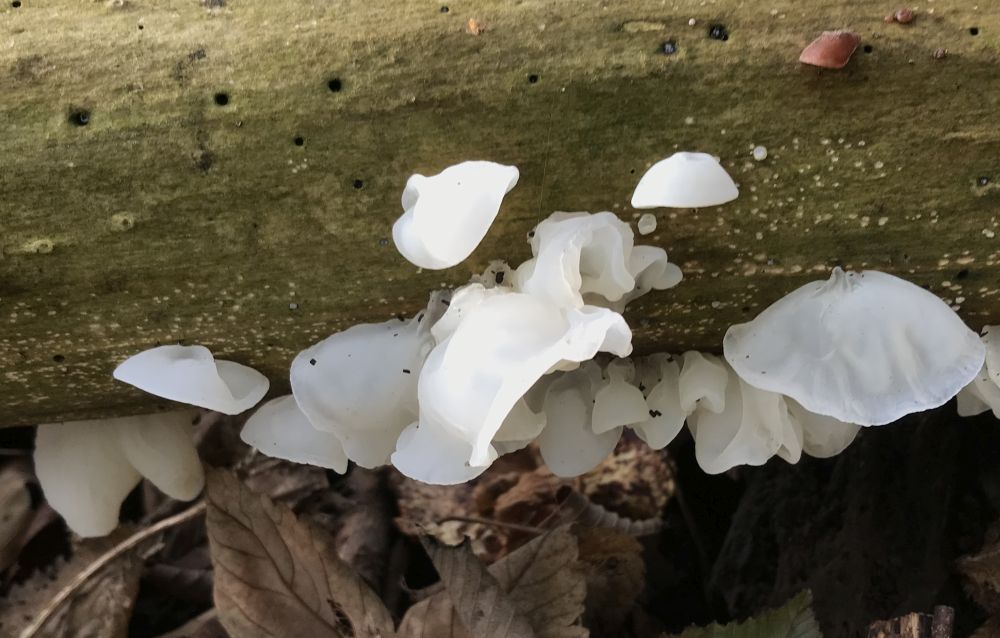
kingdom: Fungi
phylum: Basidiomycota
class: Agaricomycetes
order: Auriculariales
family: Auriculariaceae
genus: Auricularia
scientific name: Auricularia auricula-judae
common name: almindelig judasøre
